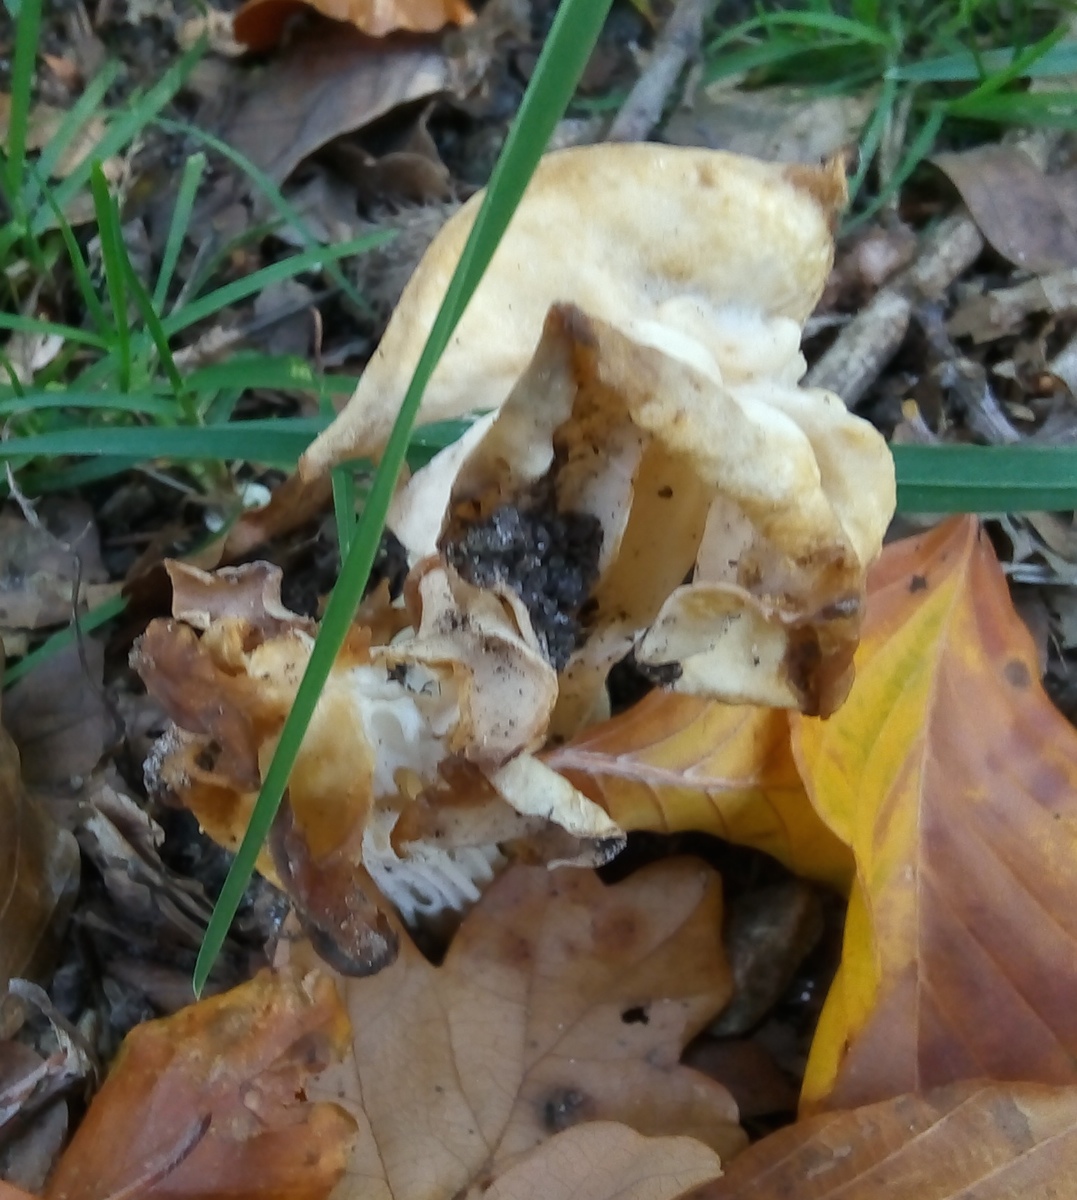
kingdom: Fungi
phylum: Ascomycota
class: Pezizomycetes
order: Pezizales
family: Helvellaceae
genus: Helvella
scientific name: Helvella crispa
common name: kruset foldhat
